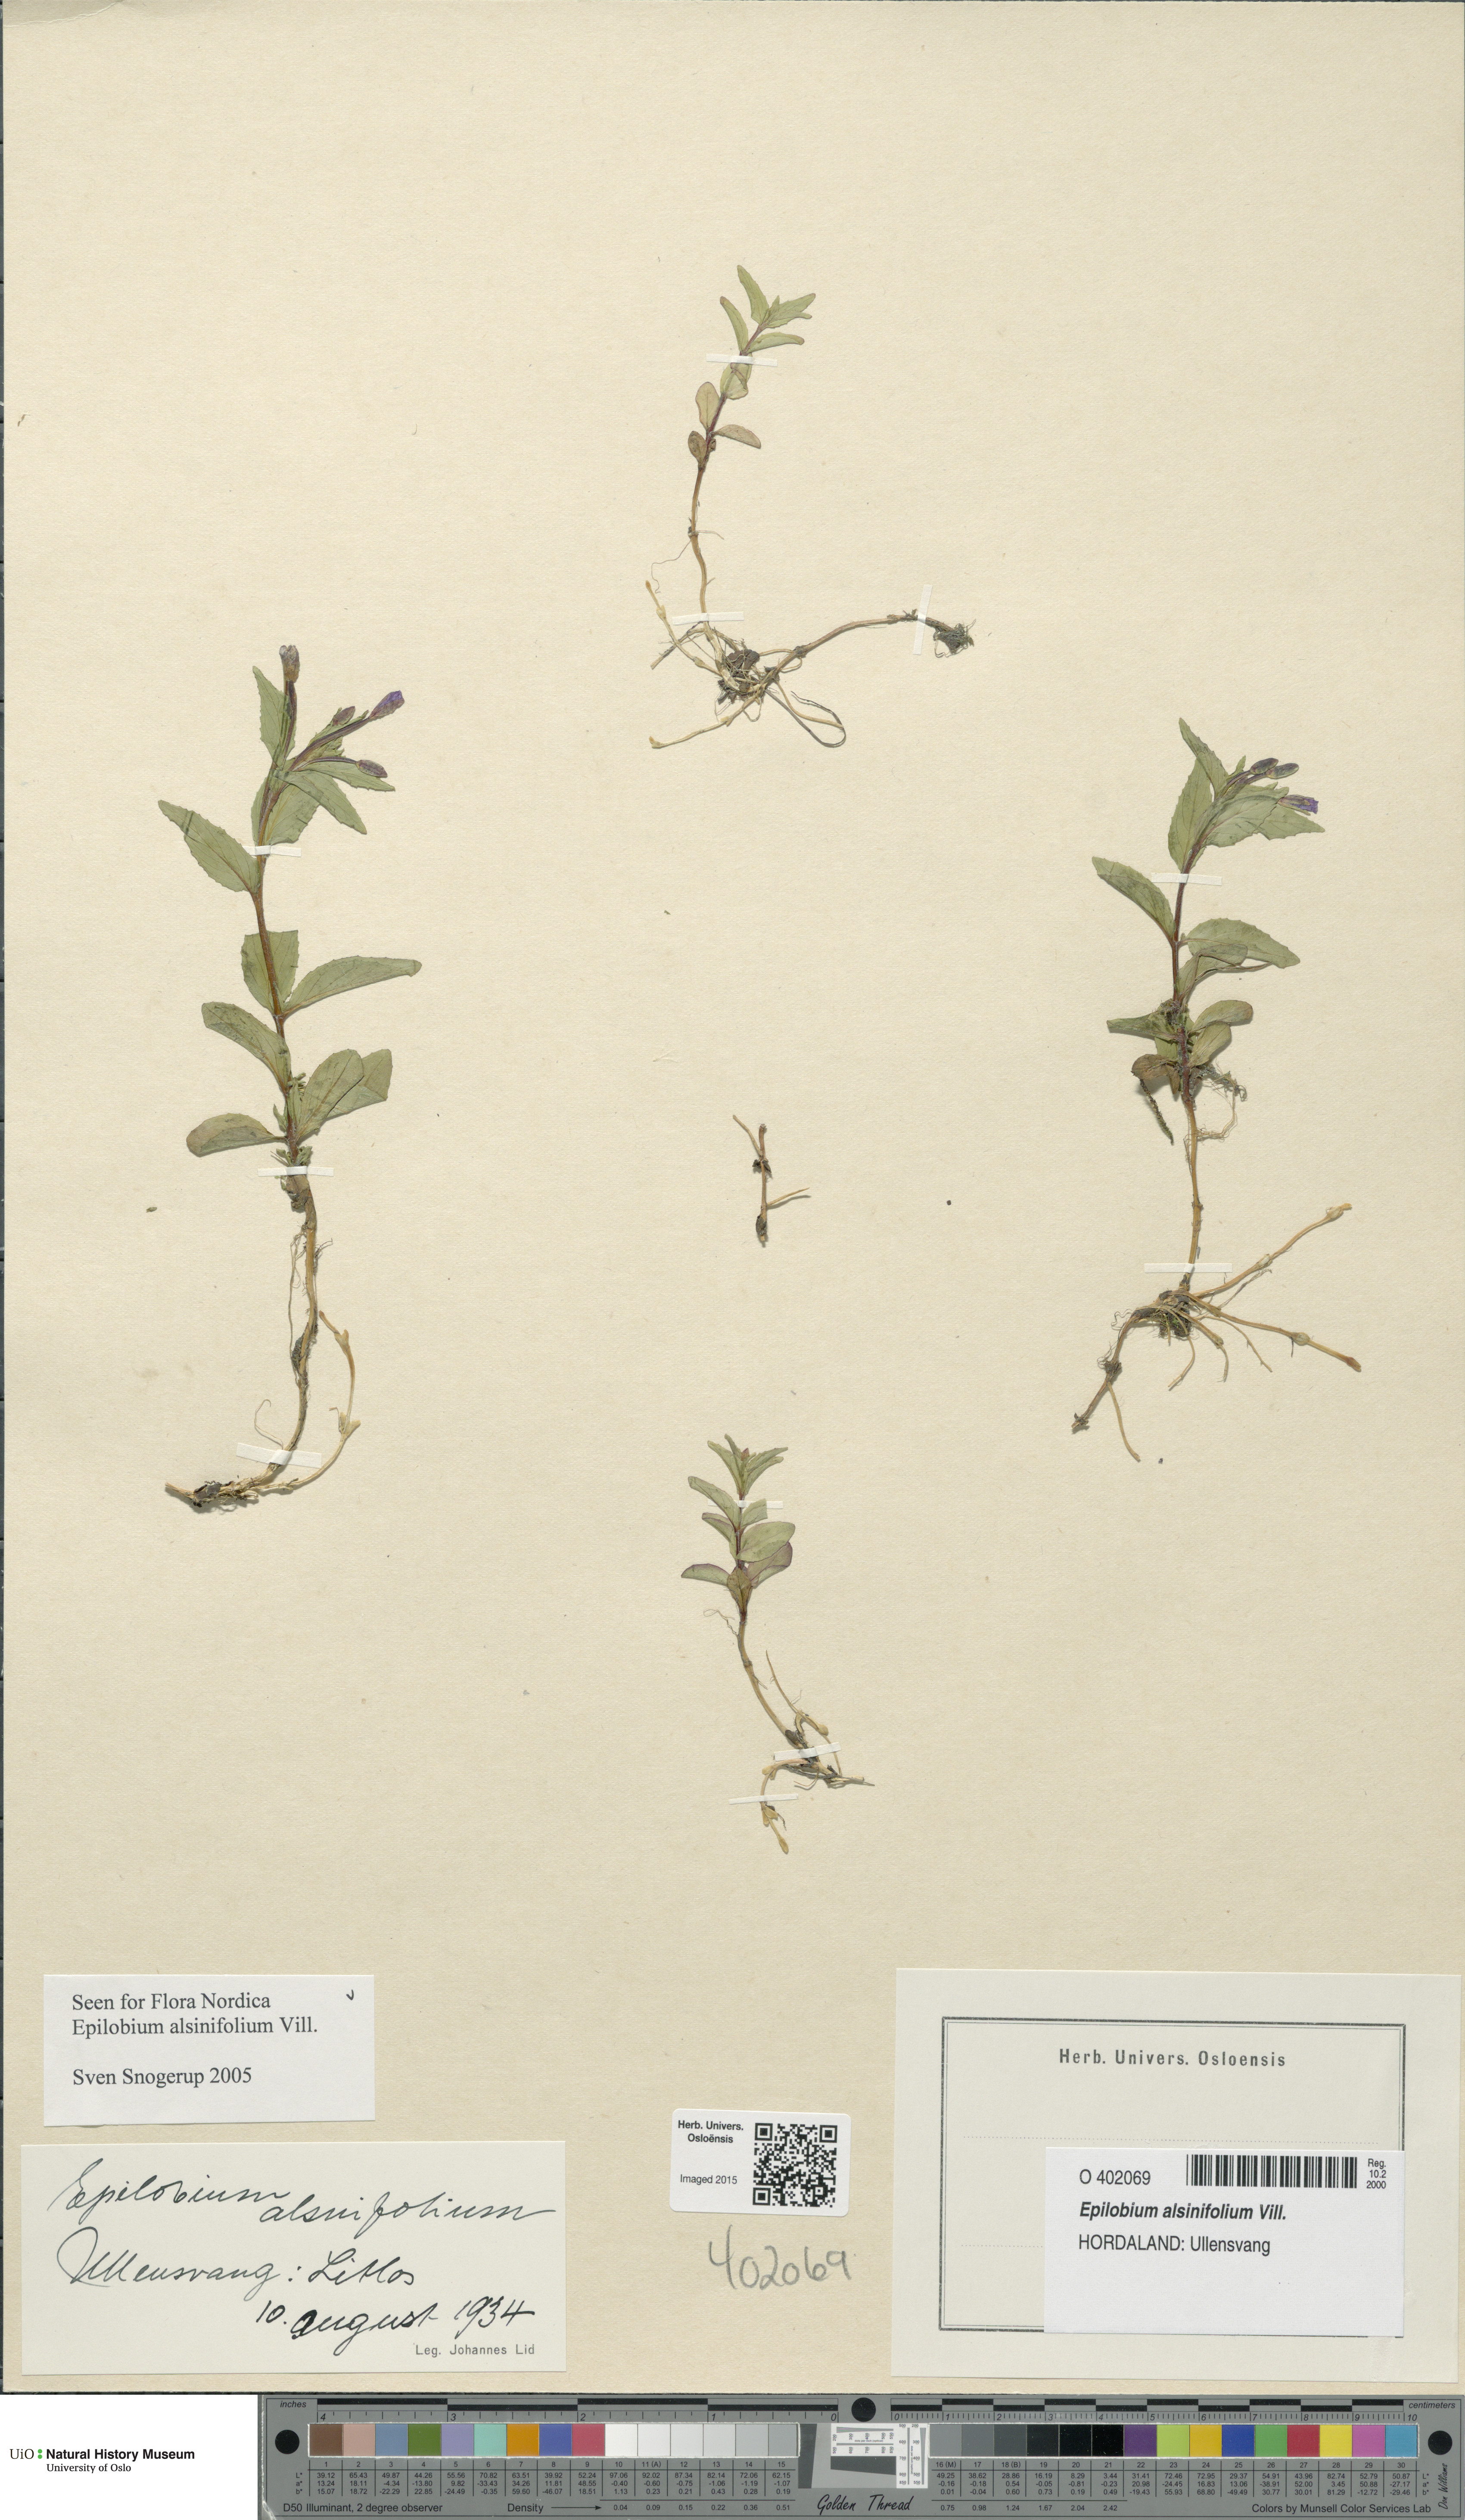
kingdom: Plantae
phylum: Tracheophyta
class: Magnoliopsida
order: Myrtales
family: Onagraceae
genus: Epilobium
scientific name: Epilobium alsinifolium
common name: Chickweed willowherb
